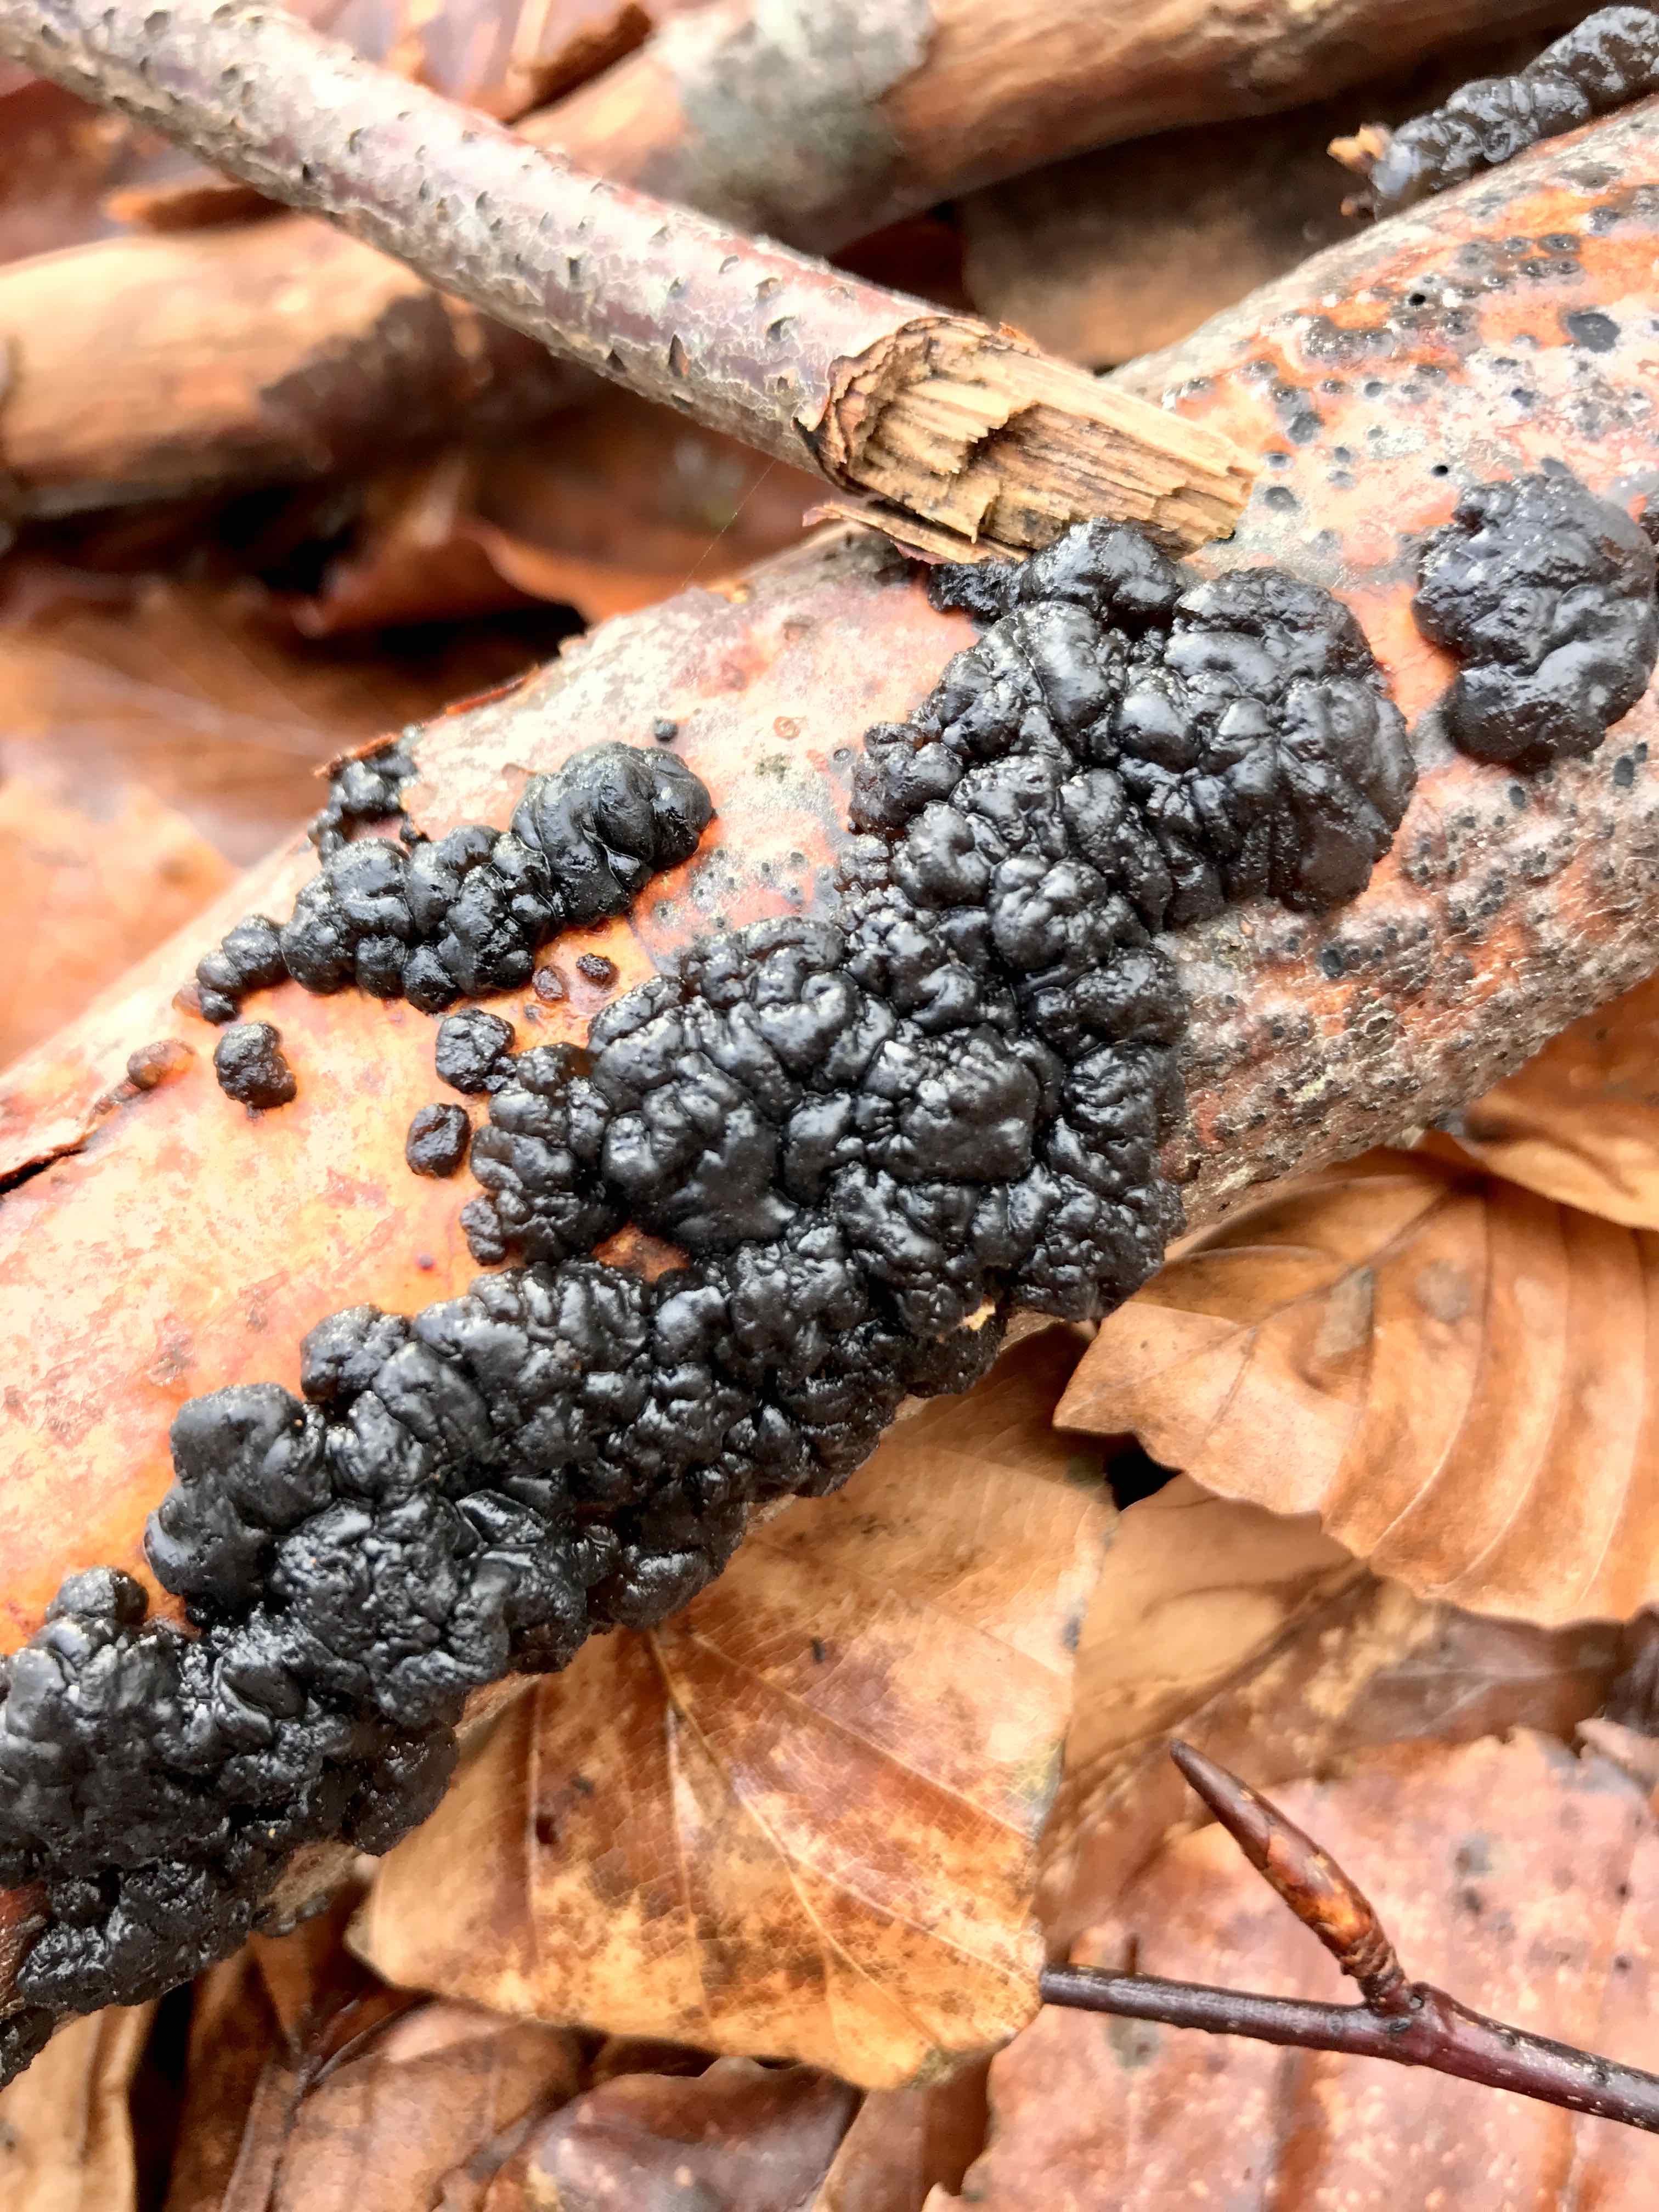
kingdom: Fungi
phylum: Basidiomycota
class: Agaricomycetes
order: Auriculariales
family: Auriculariaceae
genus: Exidia
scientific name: Exidia nigricans
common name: almindelig bævretop
